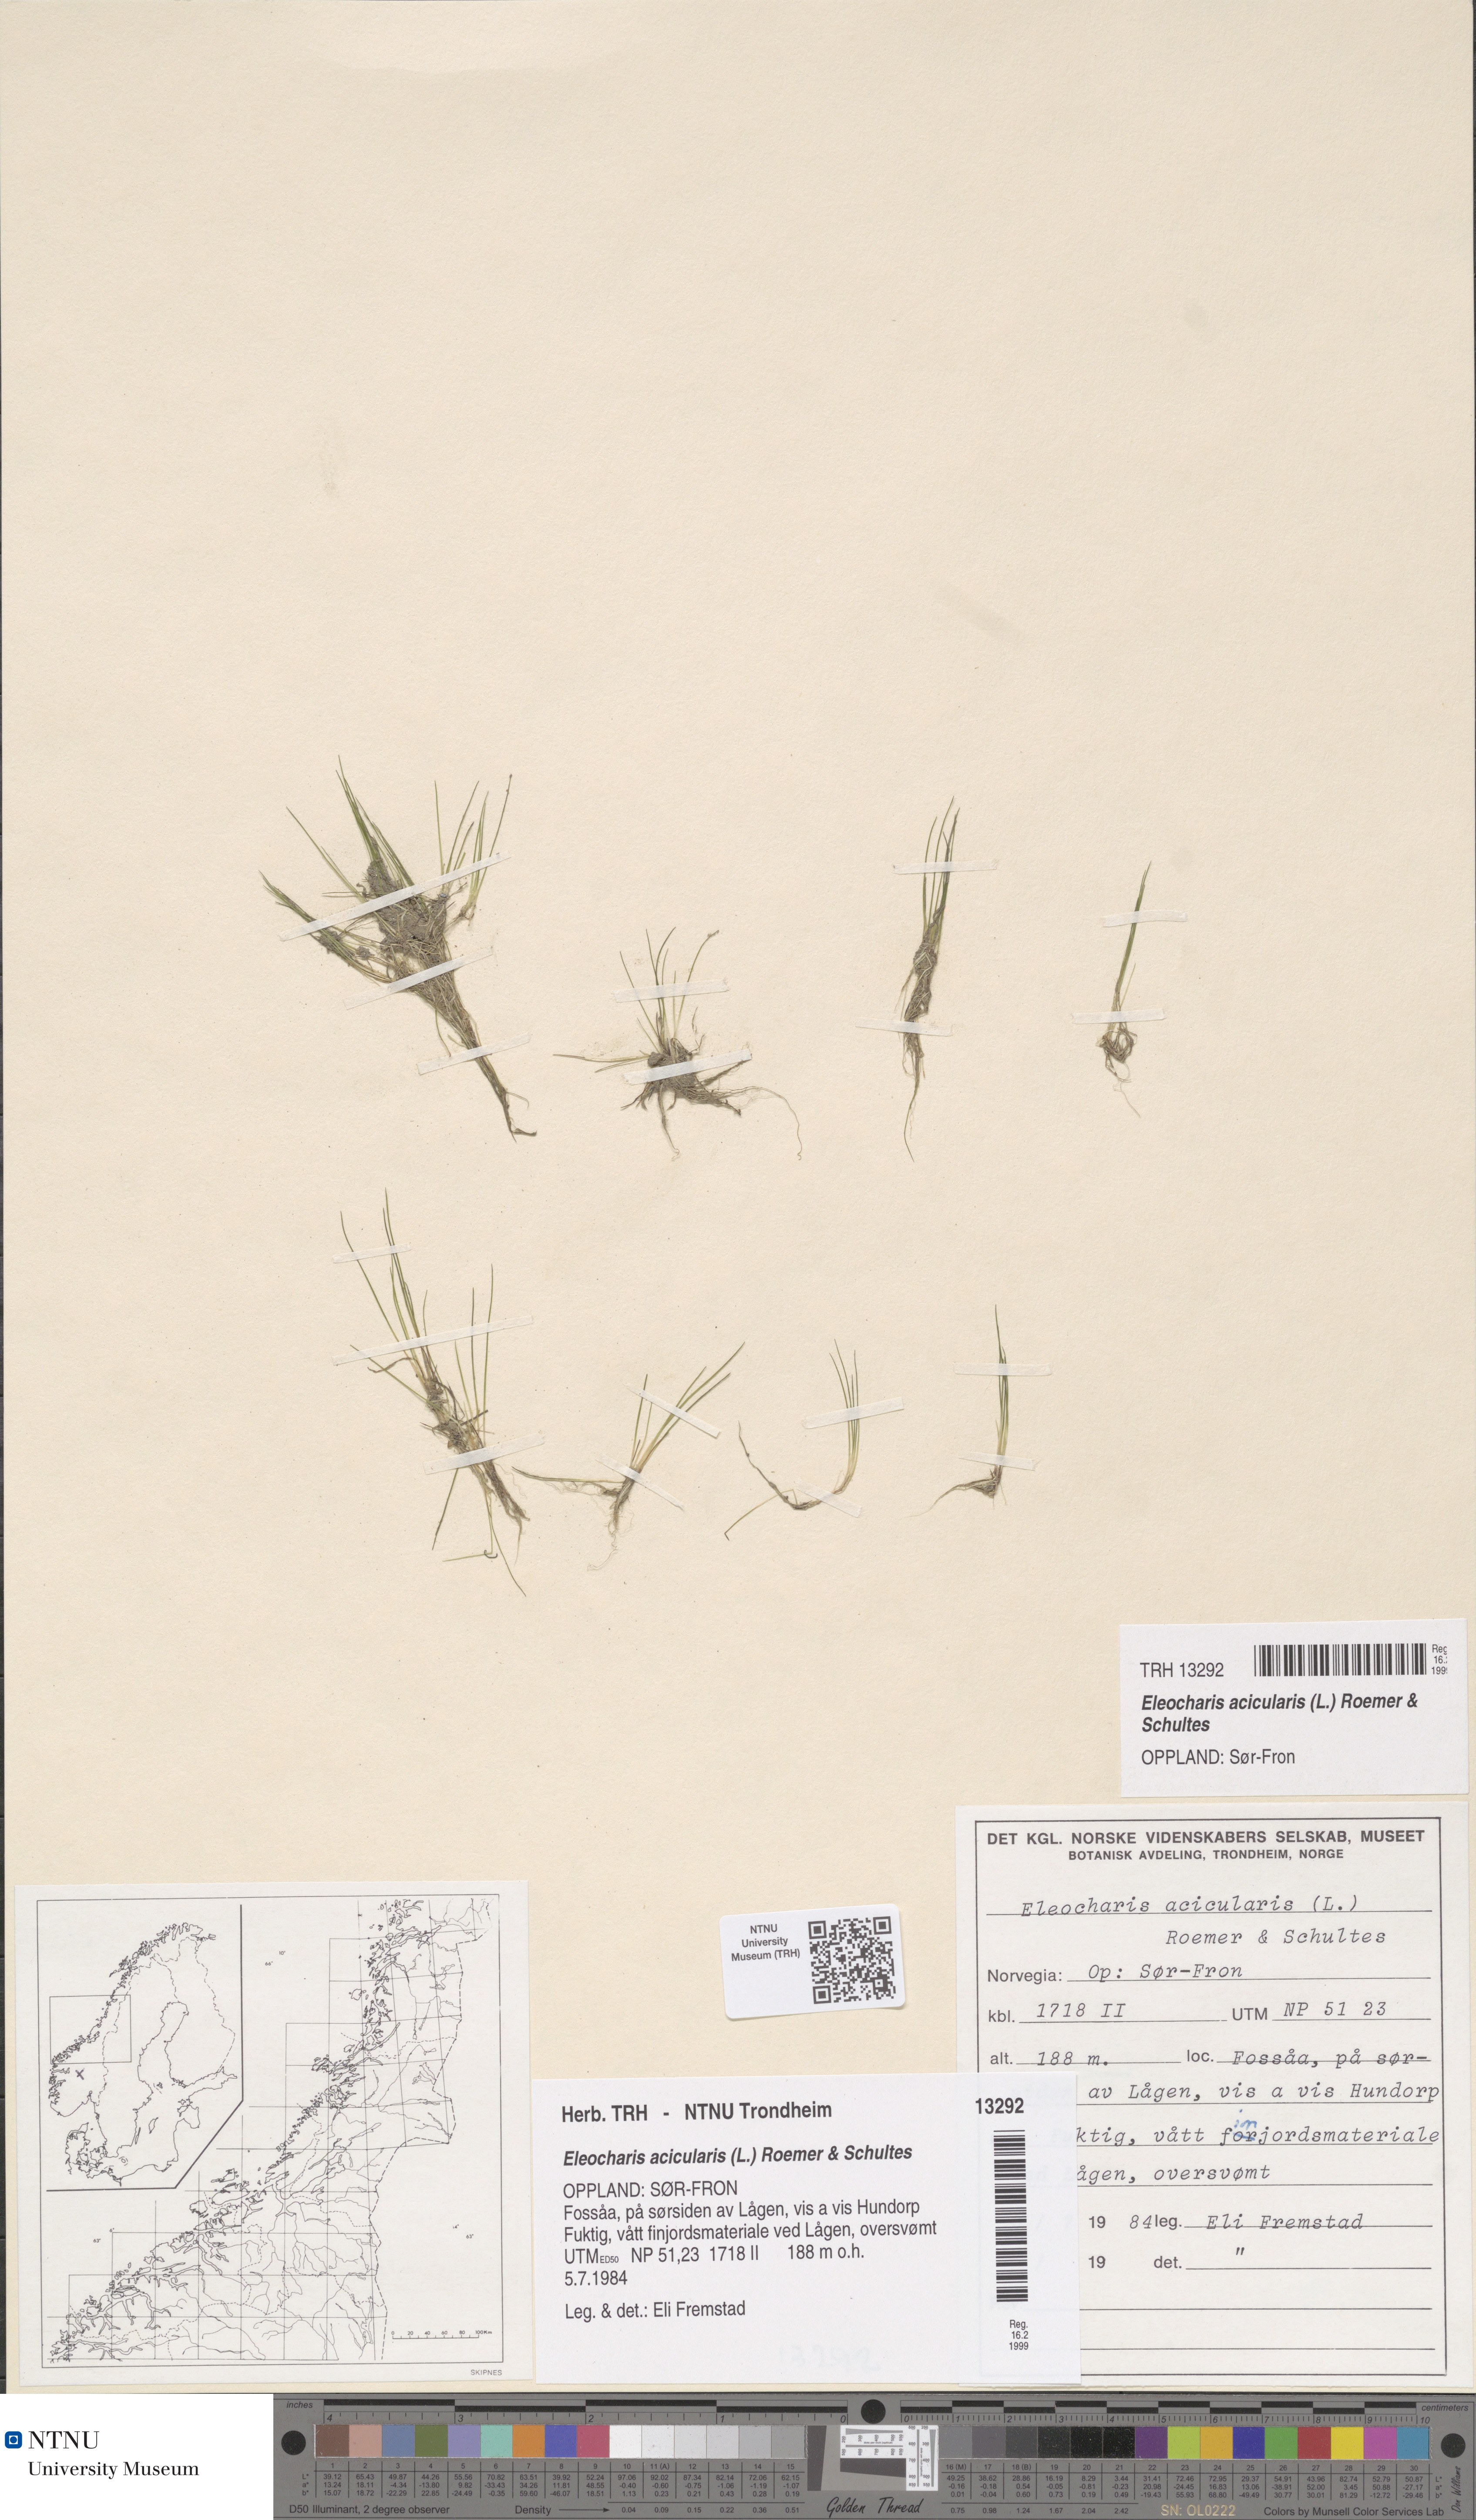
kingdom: Plantae
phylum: Tracheophyta
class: Liliopsida
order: Poales
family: Cyperaceae
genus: Eleocharis
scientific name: Eleocharis acicularis
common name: Needle spike-rush
